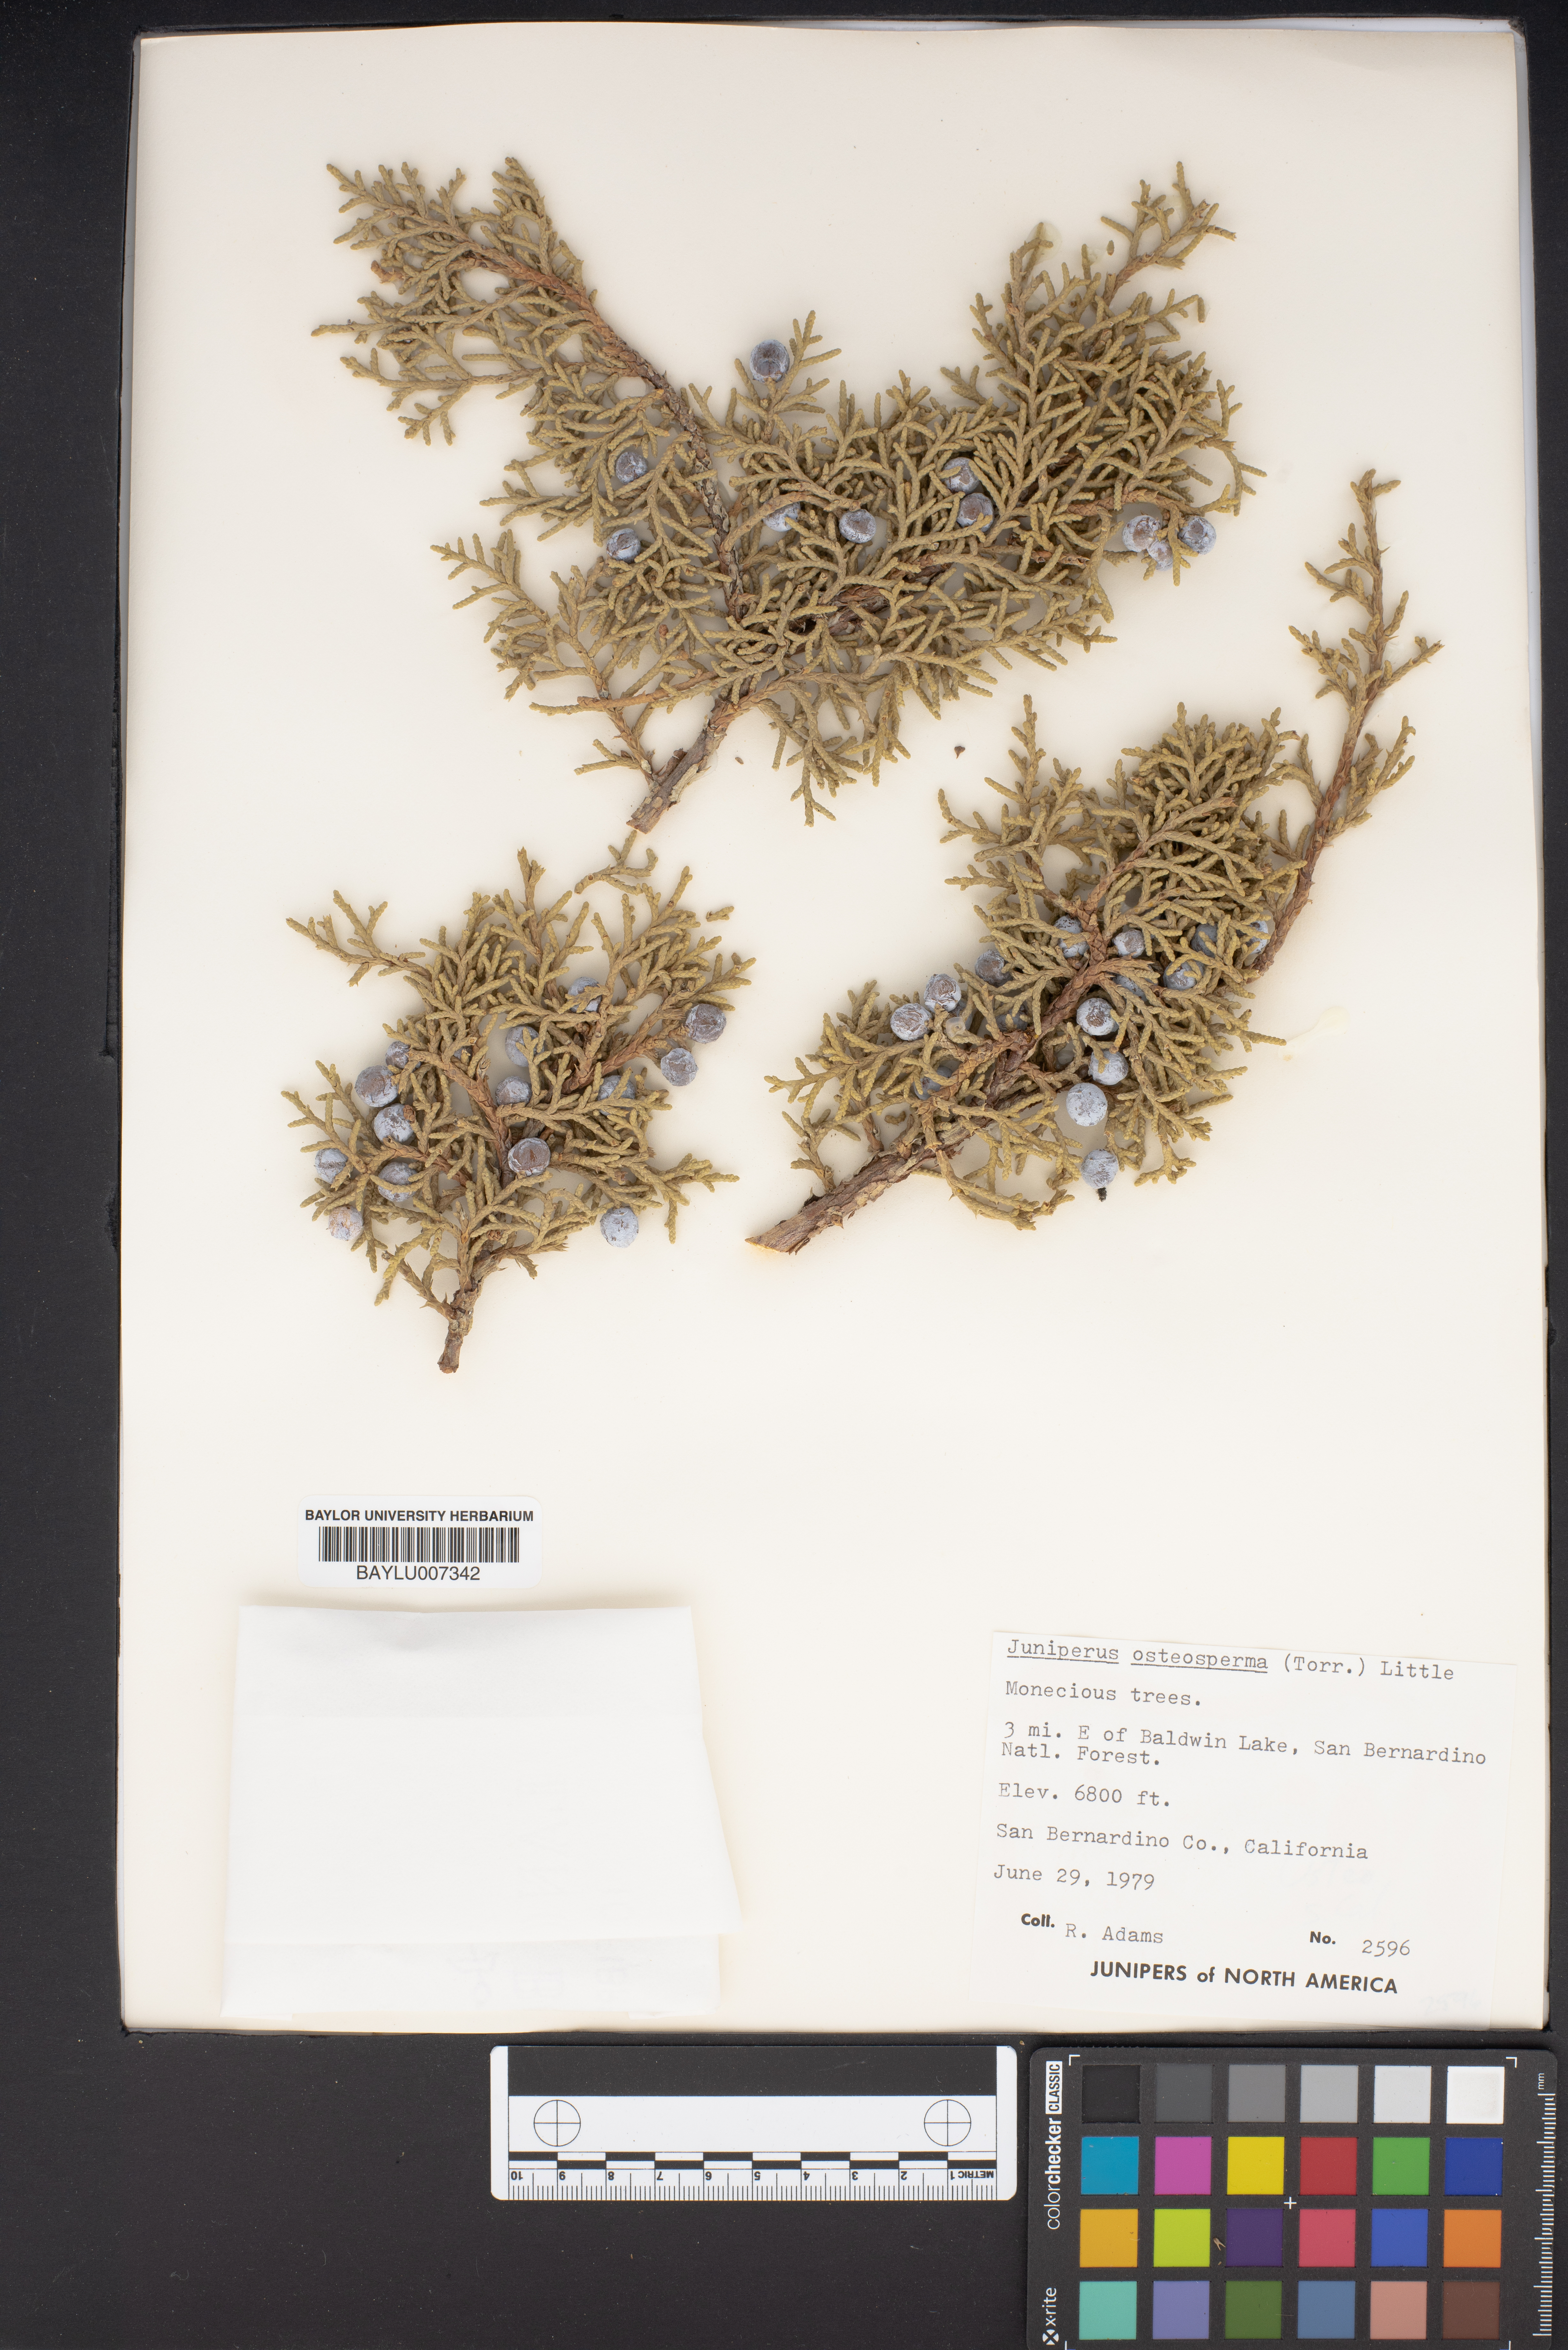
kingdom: Plantae
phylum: Tracheophyta
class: Pinopsida
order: Pinales
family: Cupressaceae
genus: Juniperus
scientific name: Juniperus osteosperma
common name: Utah juniper
